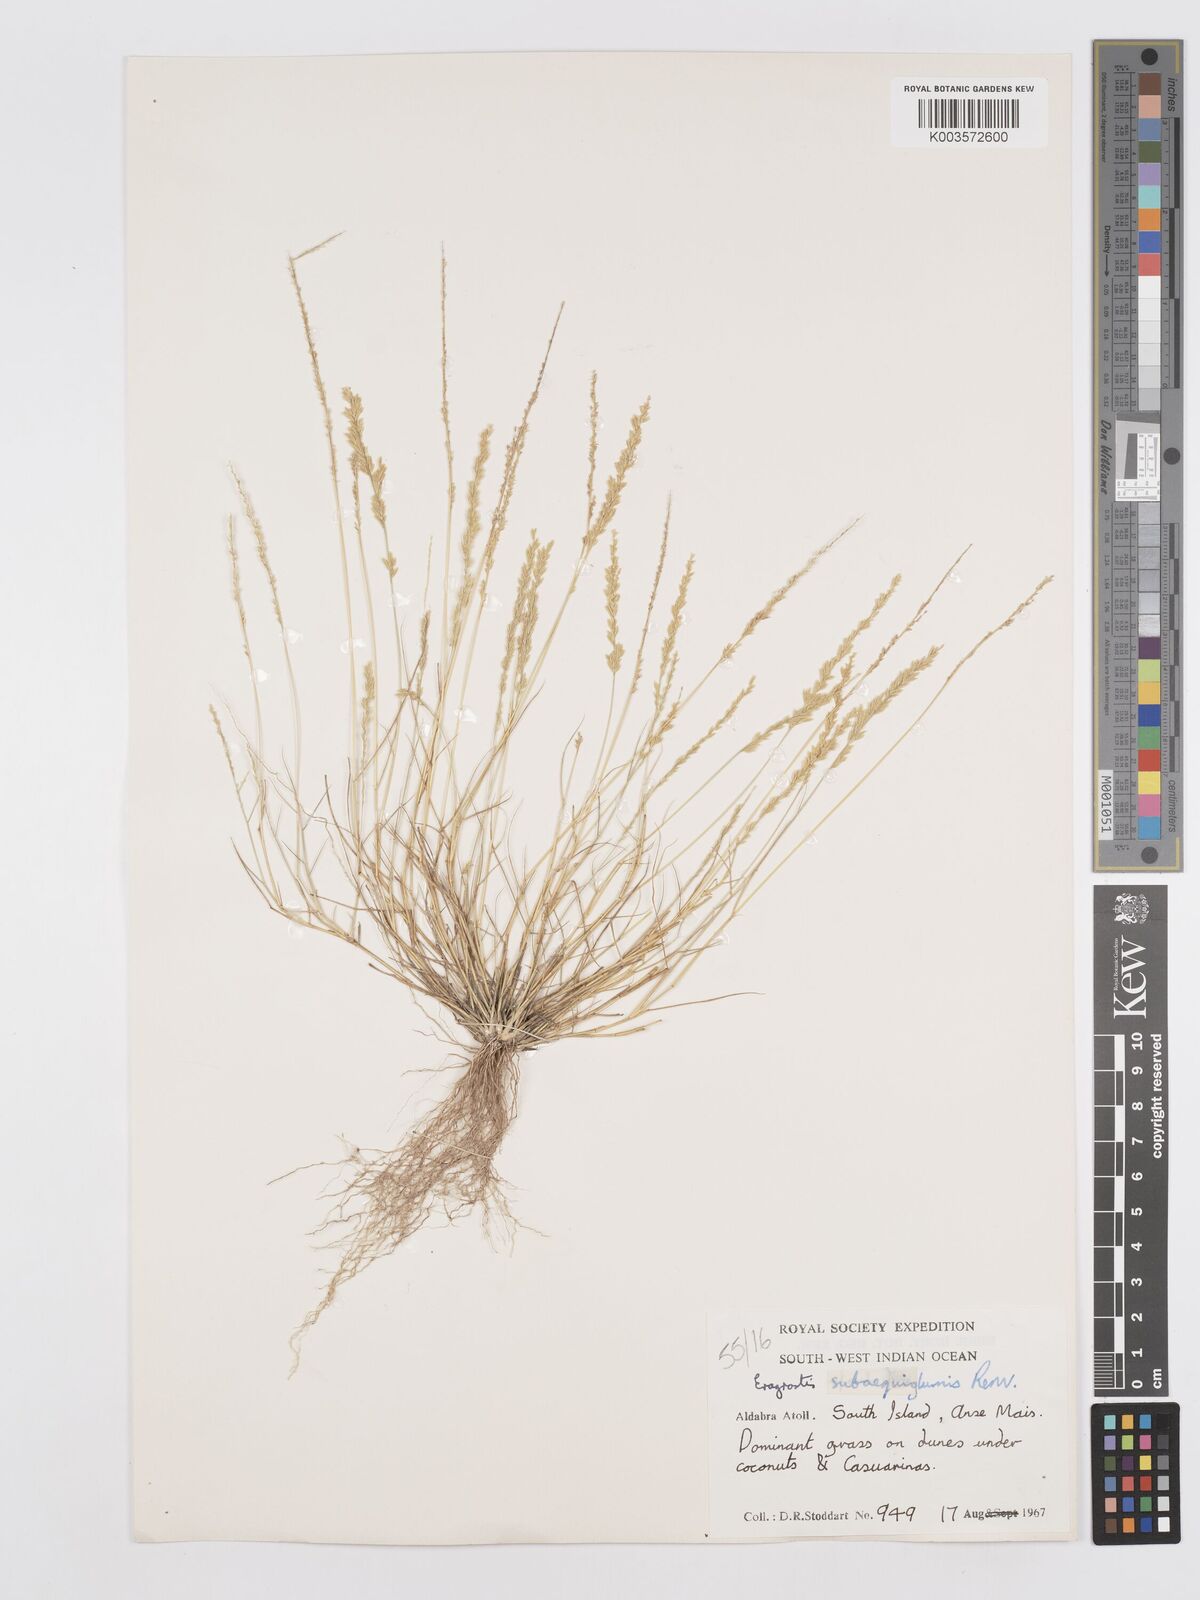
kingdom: Plantae
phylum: Tracheophyta
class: Liliopsida
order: Poales
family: Poaceae
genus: Eragrostis
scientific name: Eragrostis subaequiglumis
